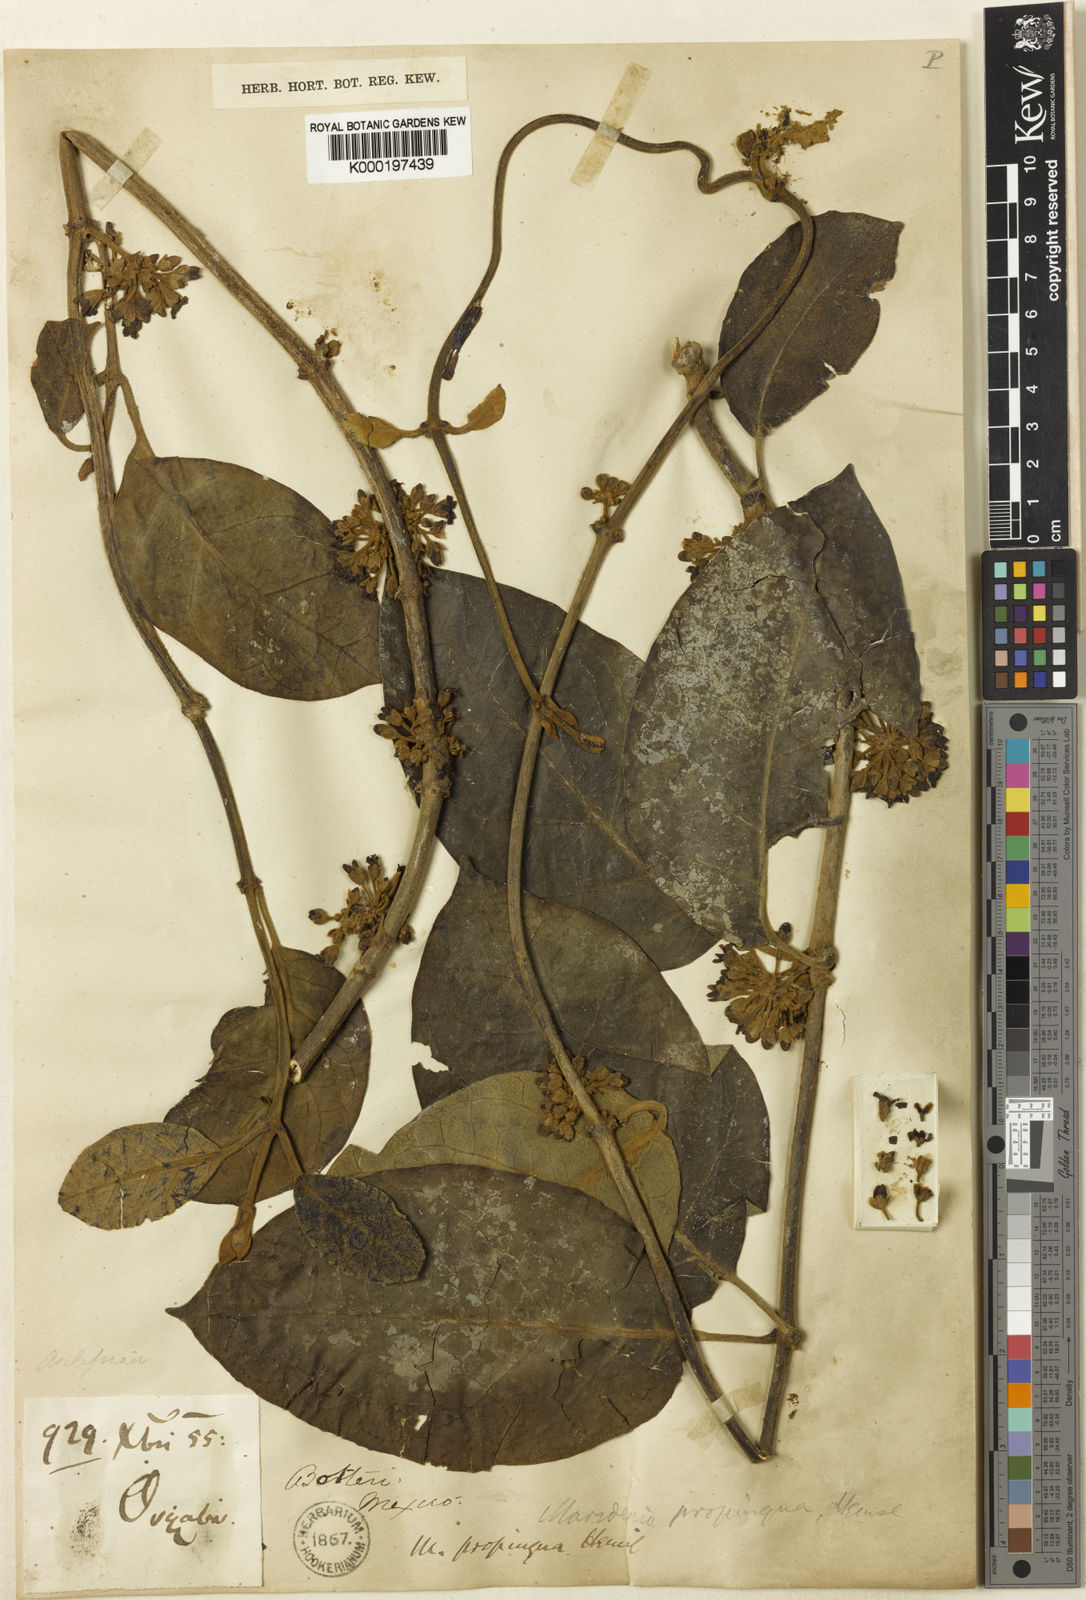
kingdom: Plantae
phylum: Tracheophyta
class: Magnoliopsida
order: Gentianales
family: Apocynaceae
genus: Ruehssia
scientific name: Ruehssia propinqua
